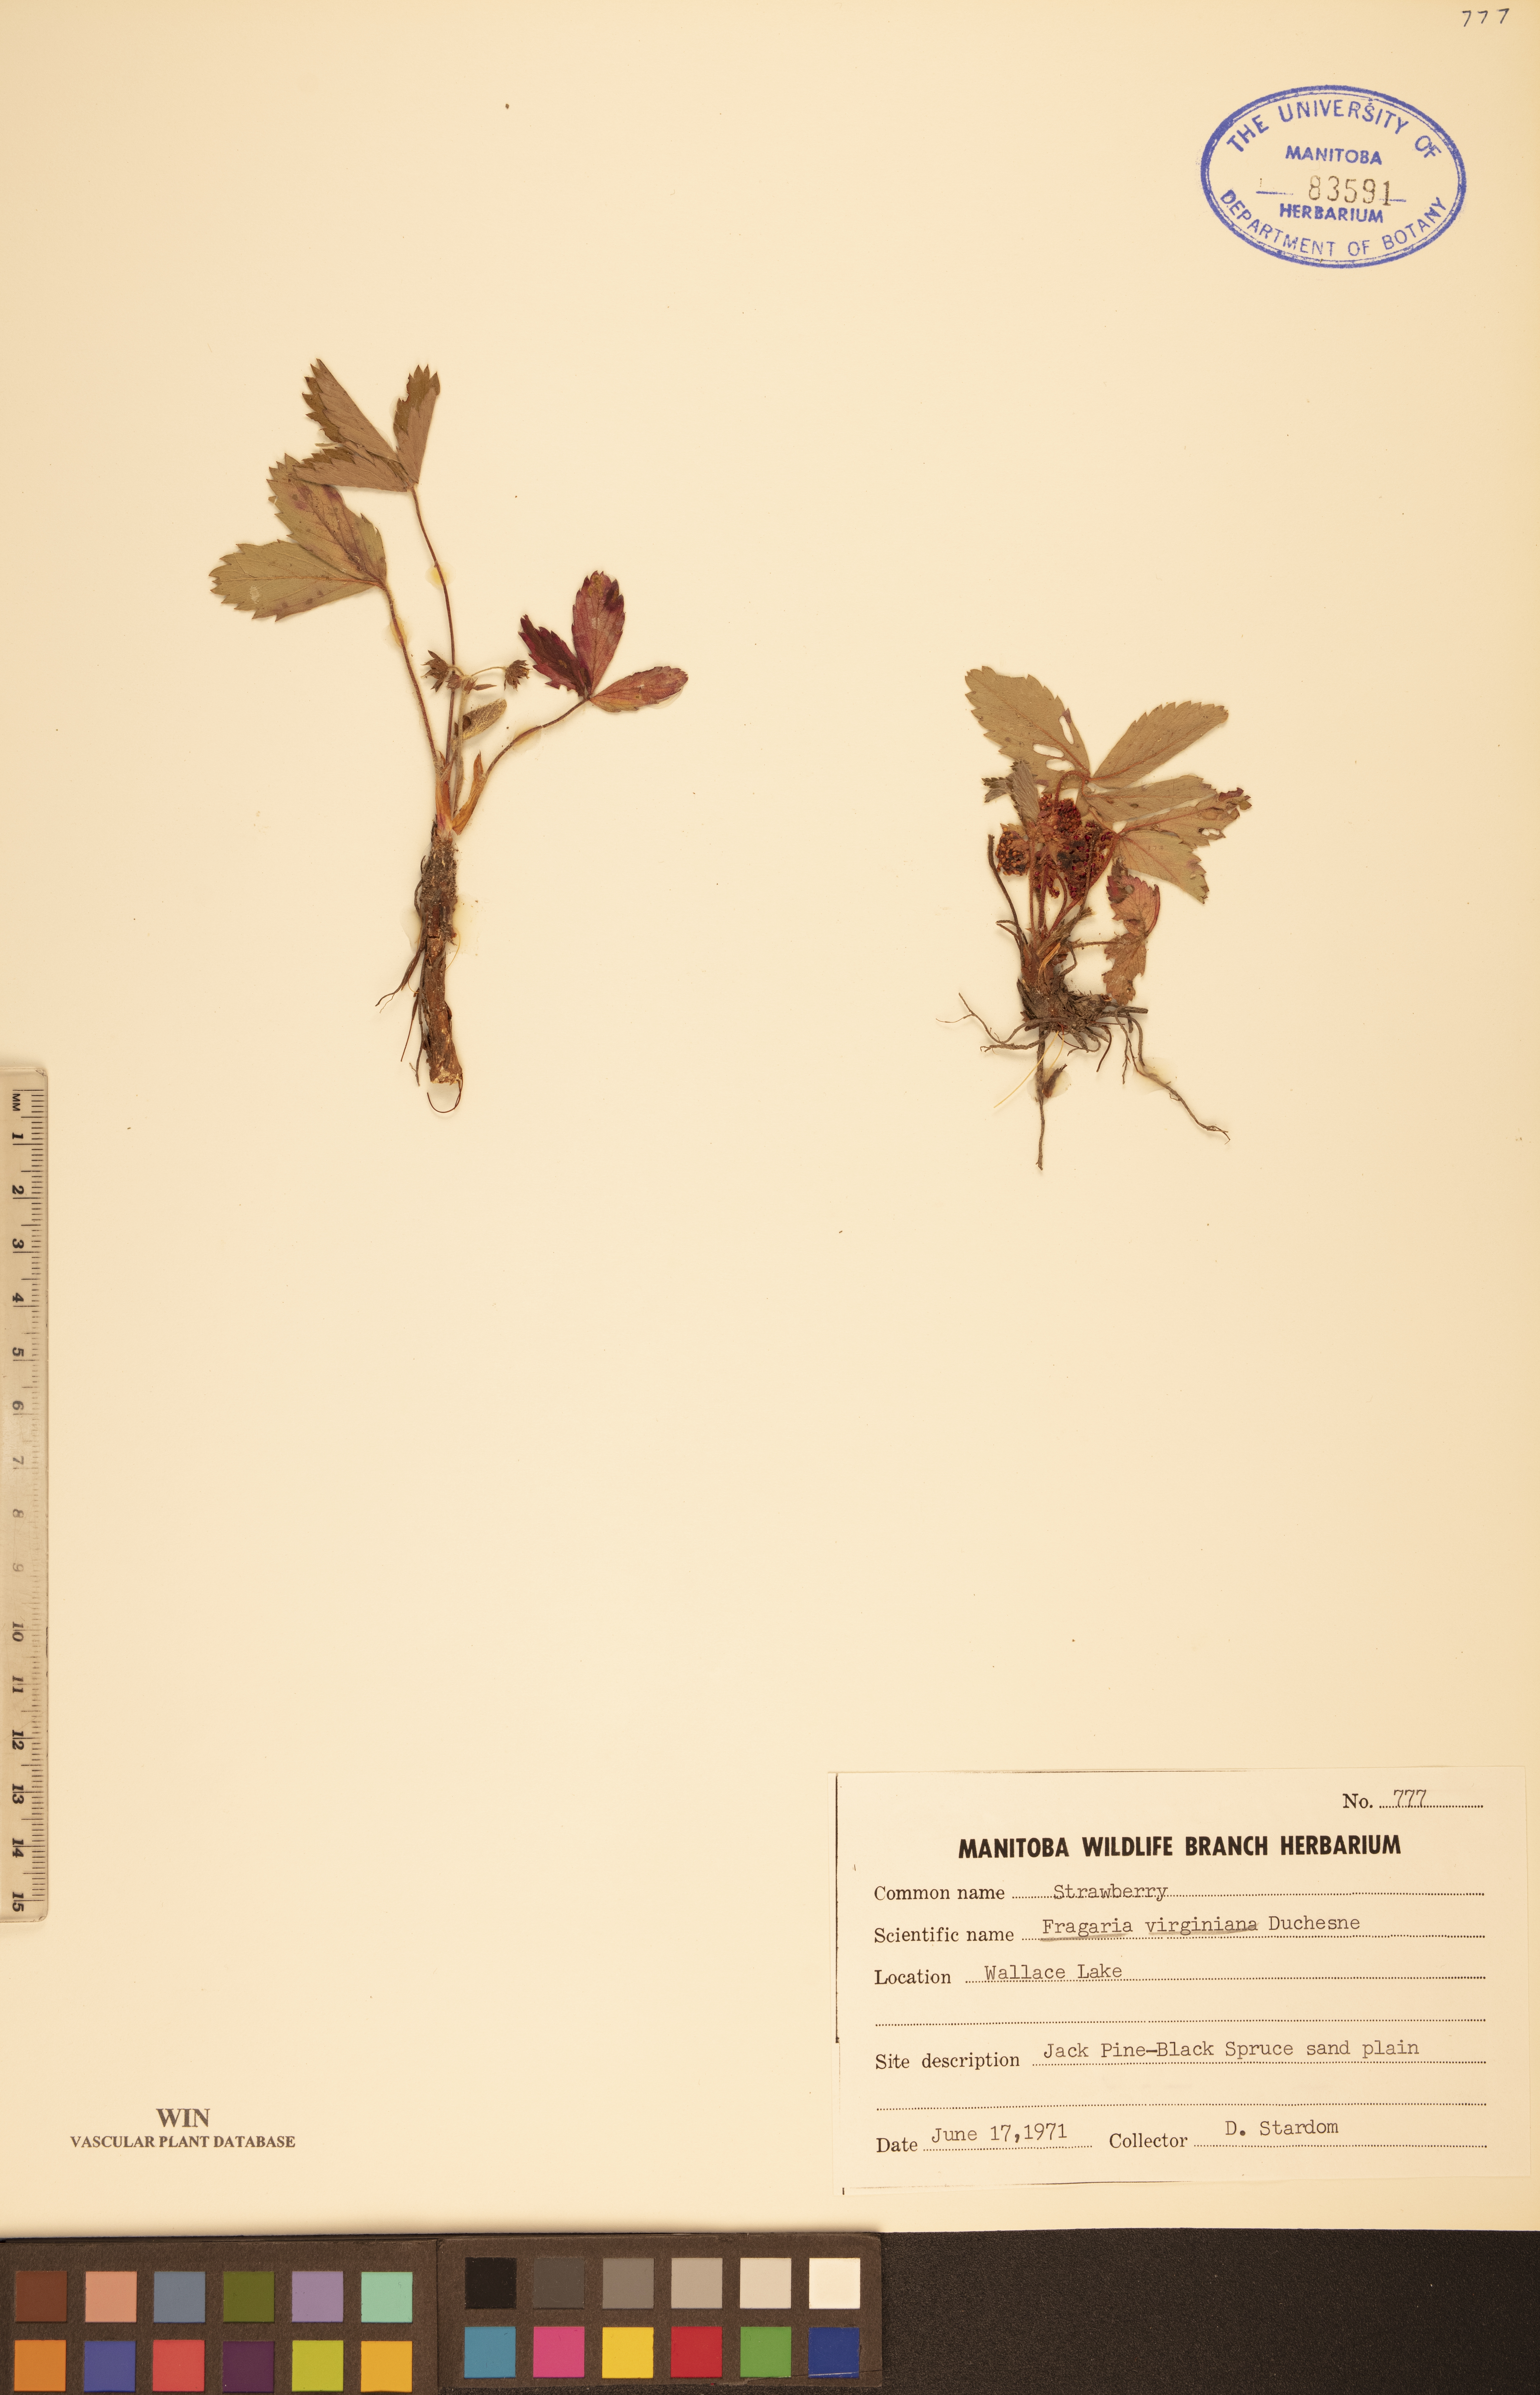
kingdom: Plantae
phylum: Tracheophyta
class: Magnoliopsida
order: Rosales
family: Rosaceae
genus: Fragaria
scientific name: Fragaria virginiana
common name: Thickleaved wild strawberry
